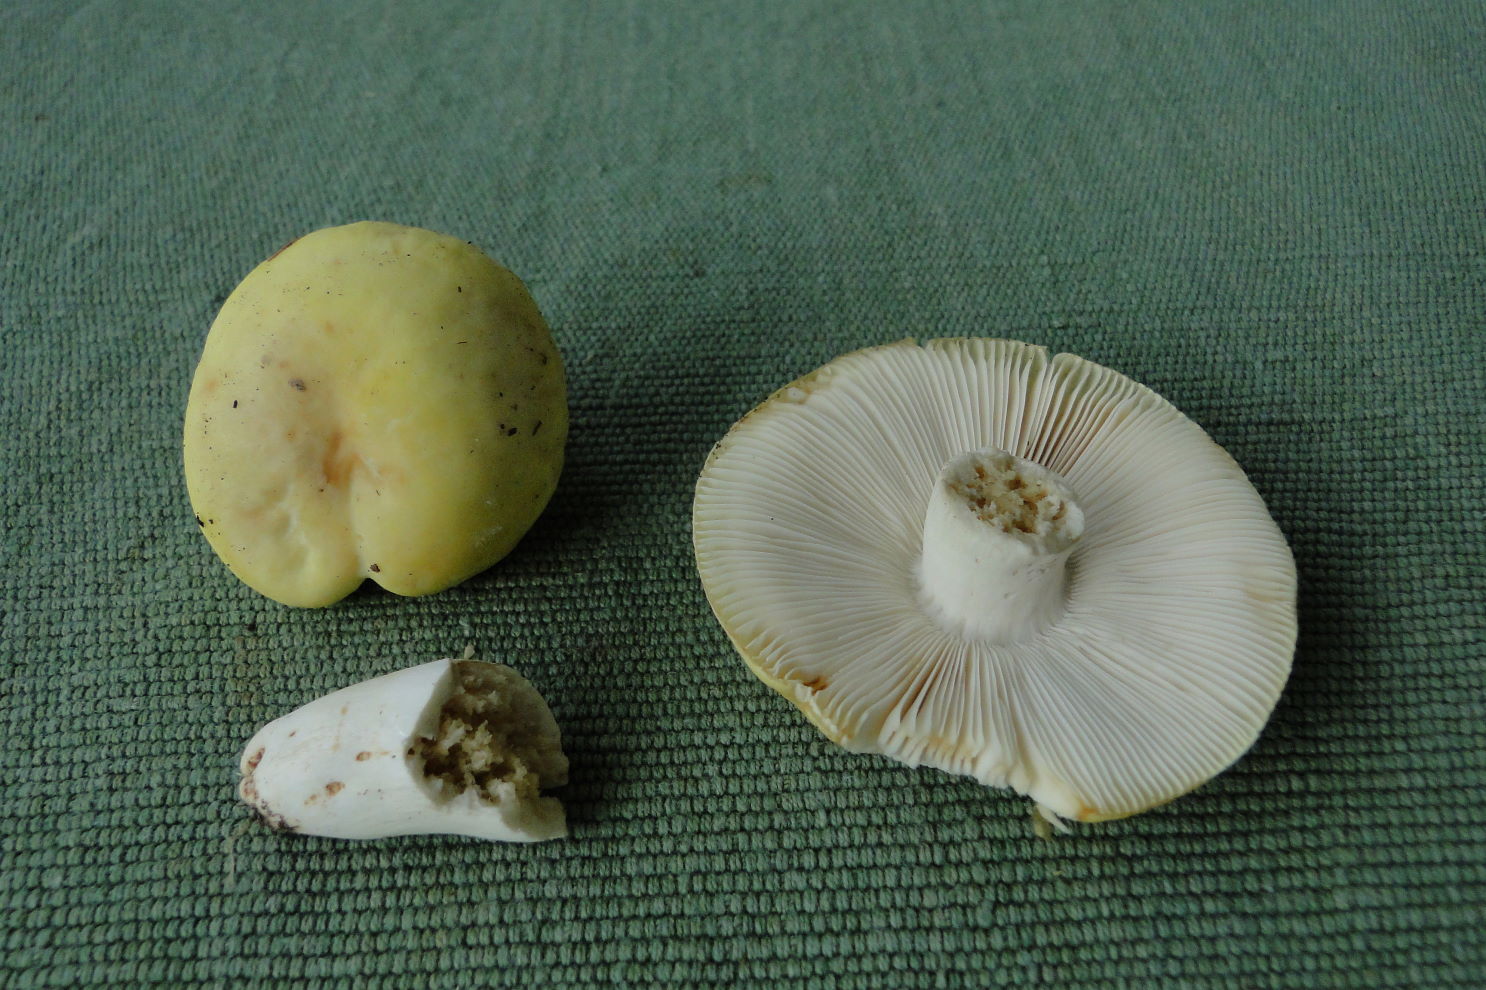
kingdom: Fungi
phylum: Basidiomycota
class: Agaricomycetes
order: Russulales
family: Russulaceae
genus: Russula
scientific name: Russula violeipes
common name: ferskengul skørhat
